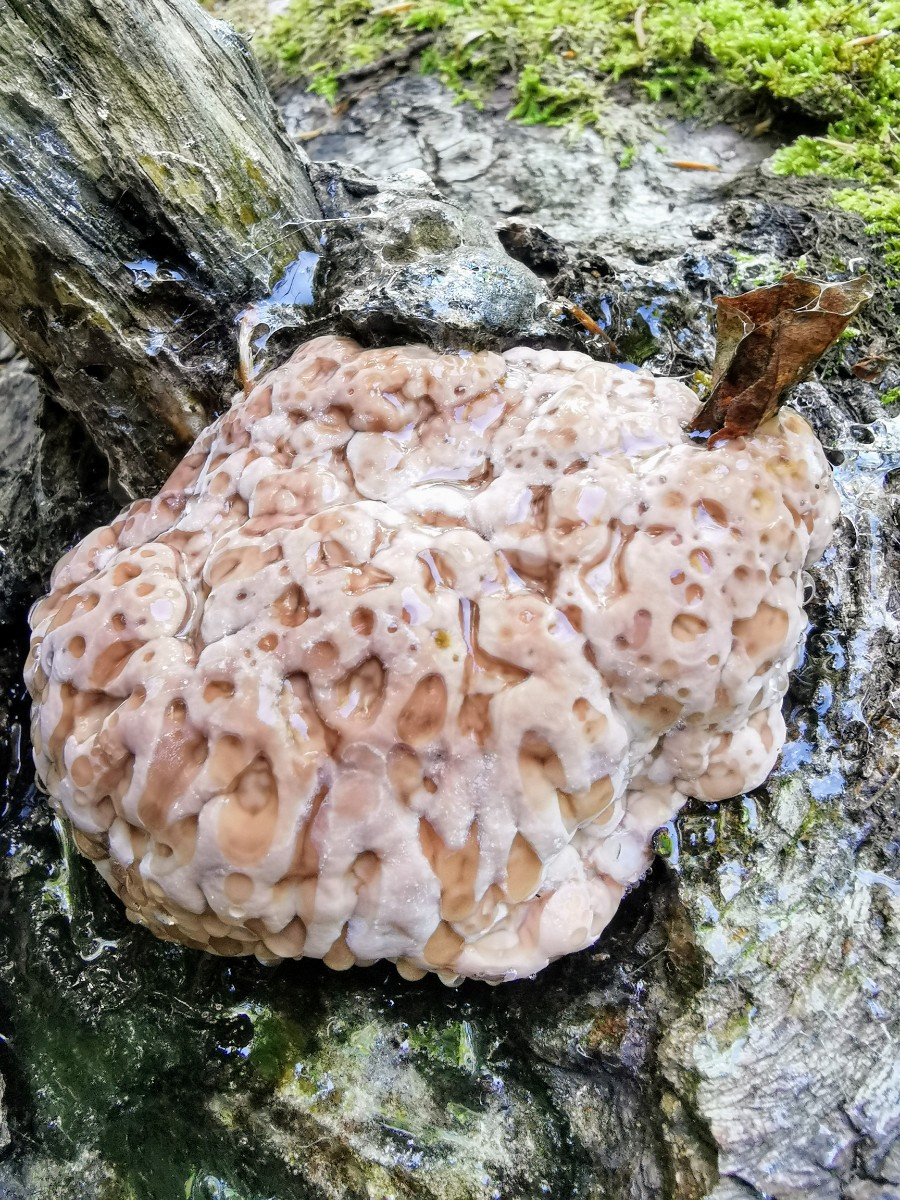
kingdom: Fungi
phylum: Basidiomycota
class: Agaricomycetes
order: Polyporales
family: Fomitopsidaceae
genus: Fomitopsis
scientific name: Fomitopsis pinicola
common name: randbæltet hovporesvamp
